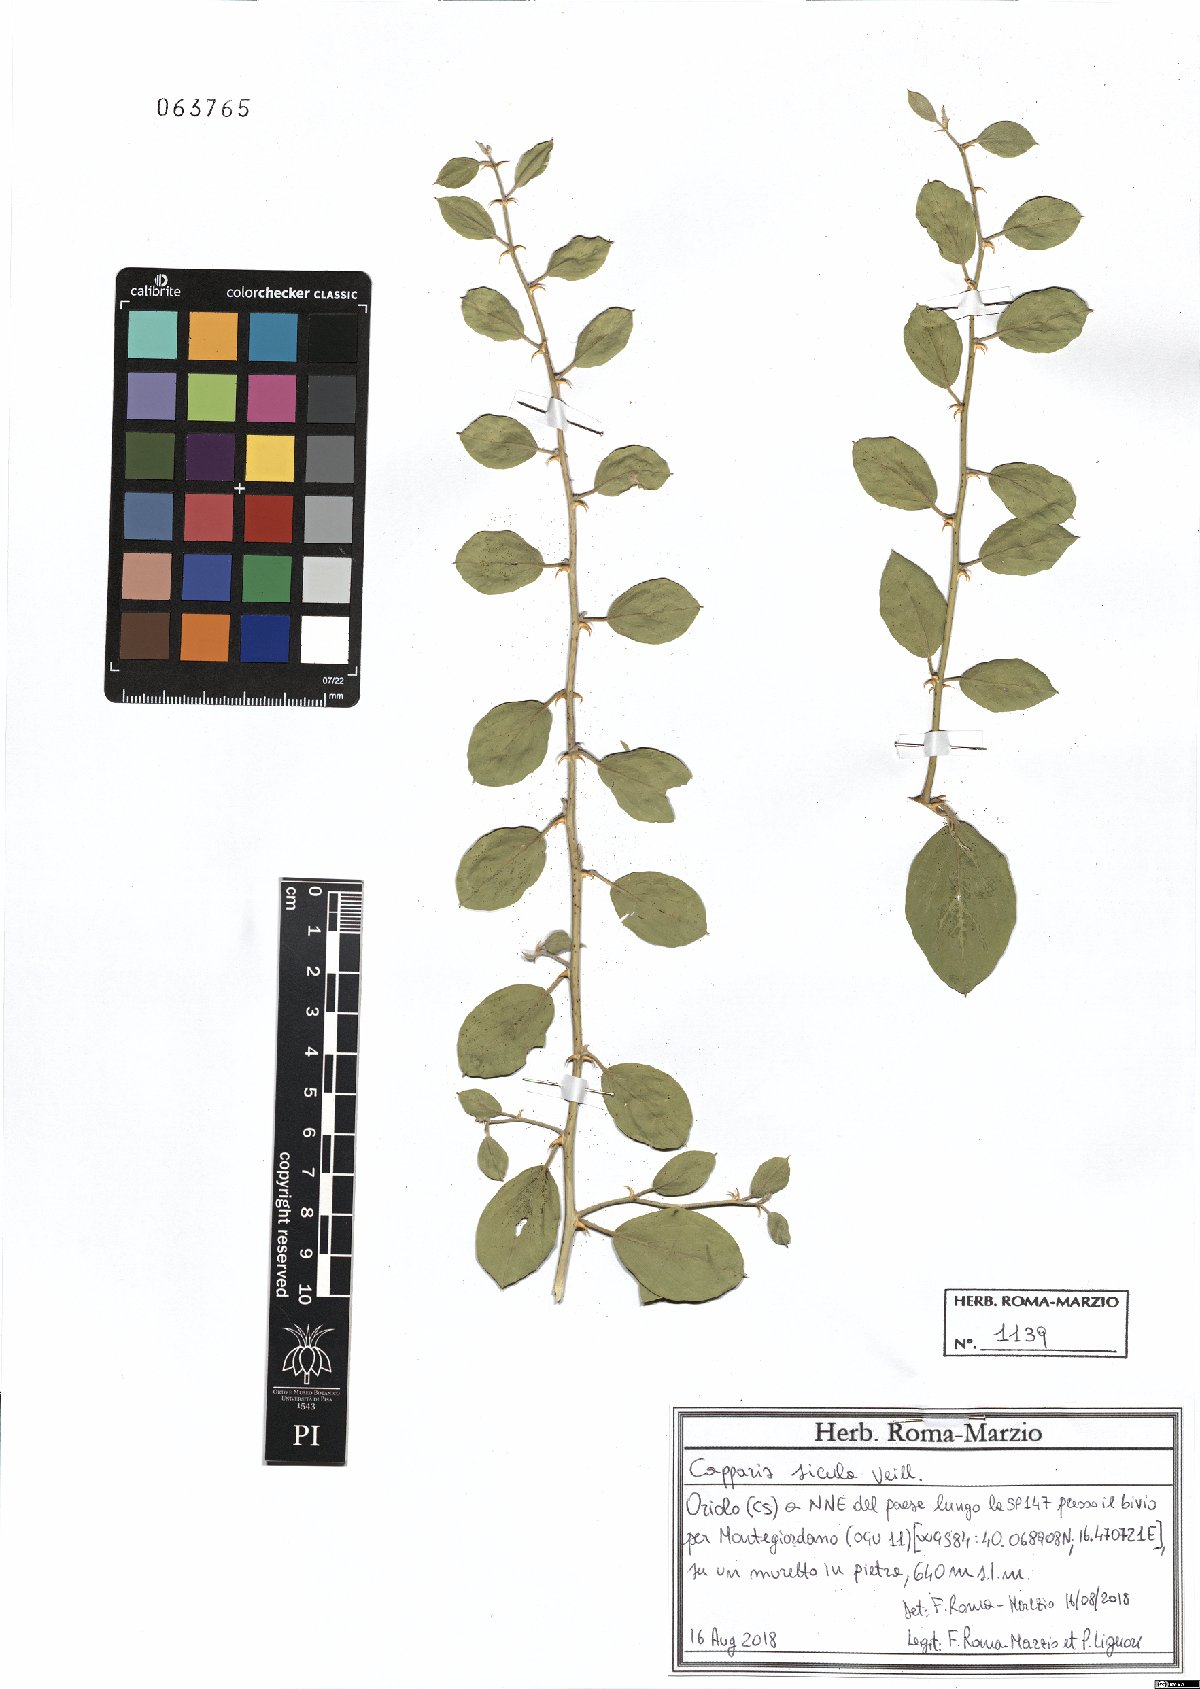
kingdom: Plantae
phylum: Tracheophyta
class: Magnoliopsida
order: Brassicales
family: Capparaceae
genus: Capparis
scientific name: Capparis spinosa
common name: Caper
